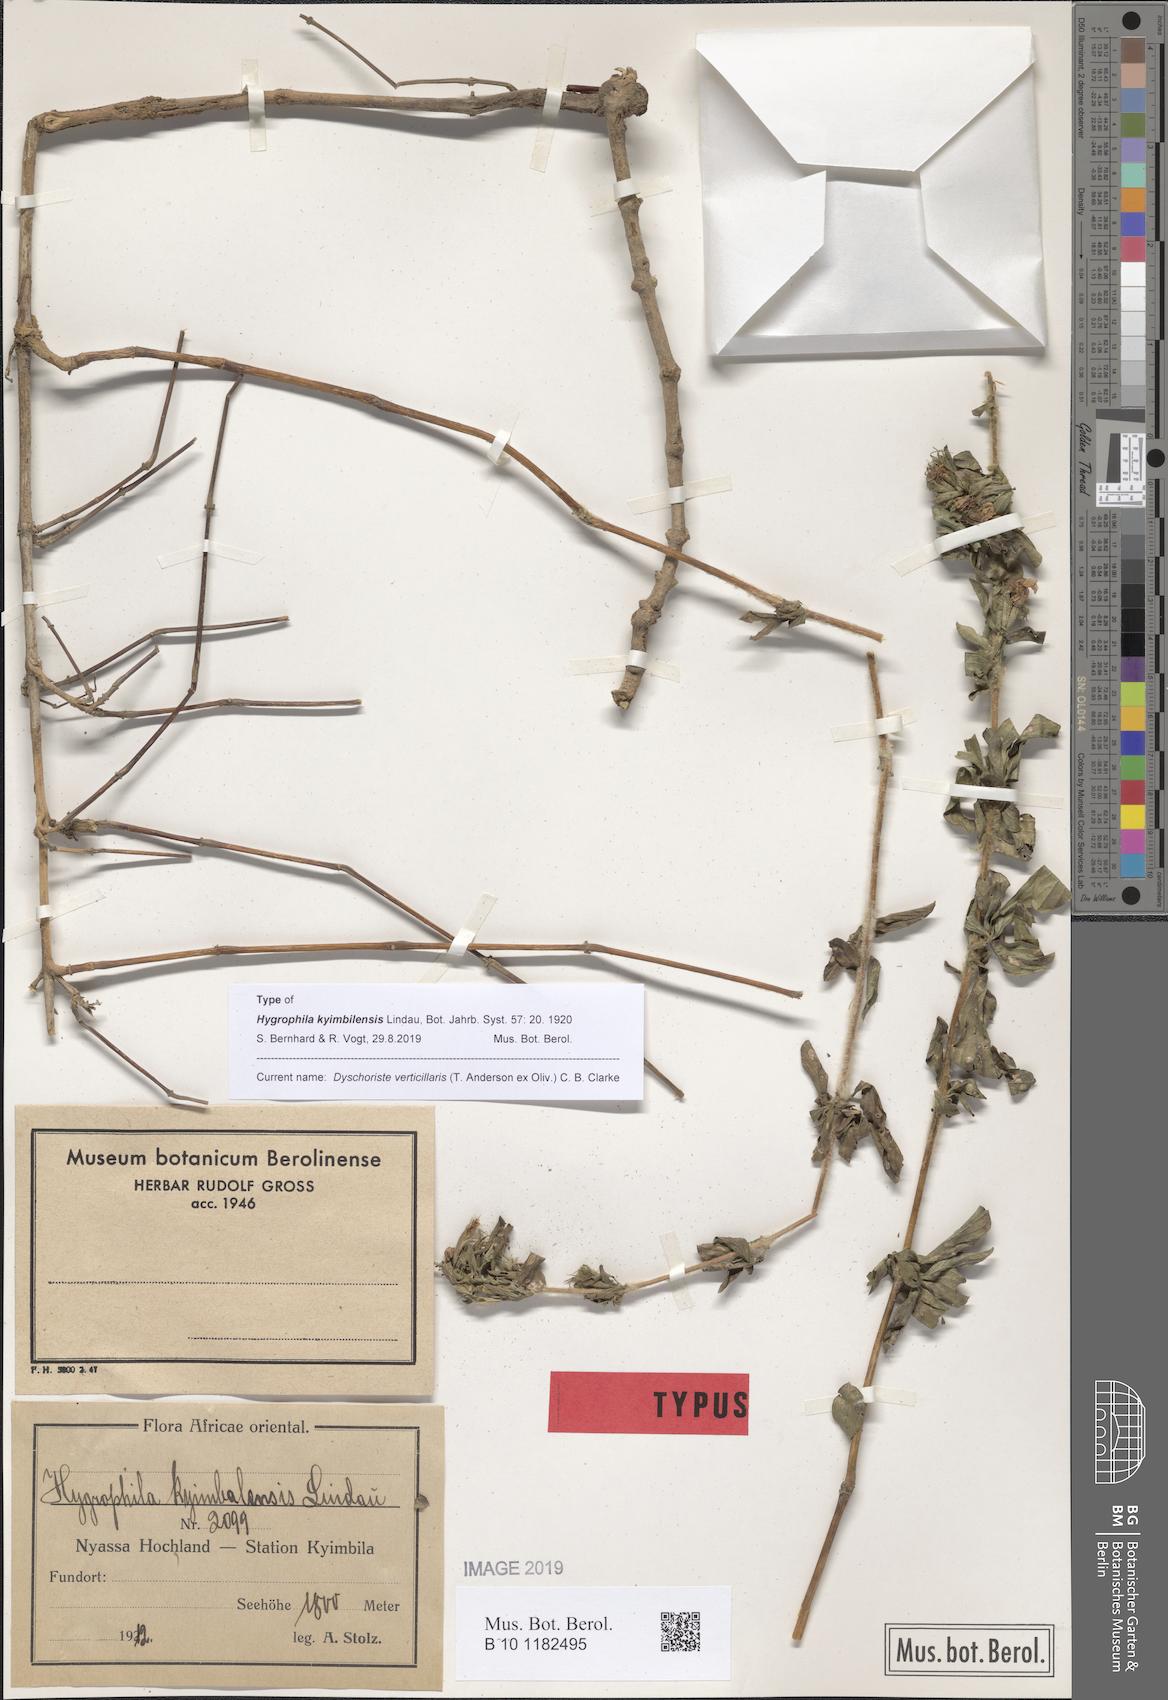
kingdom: Plantae
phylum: Tracheophyta
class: Magnoliopsida
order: Lamiales
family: Acanthaceae
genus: Dyschoriste
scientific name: Dyschoriste trichocalyx
